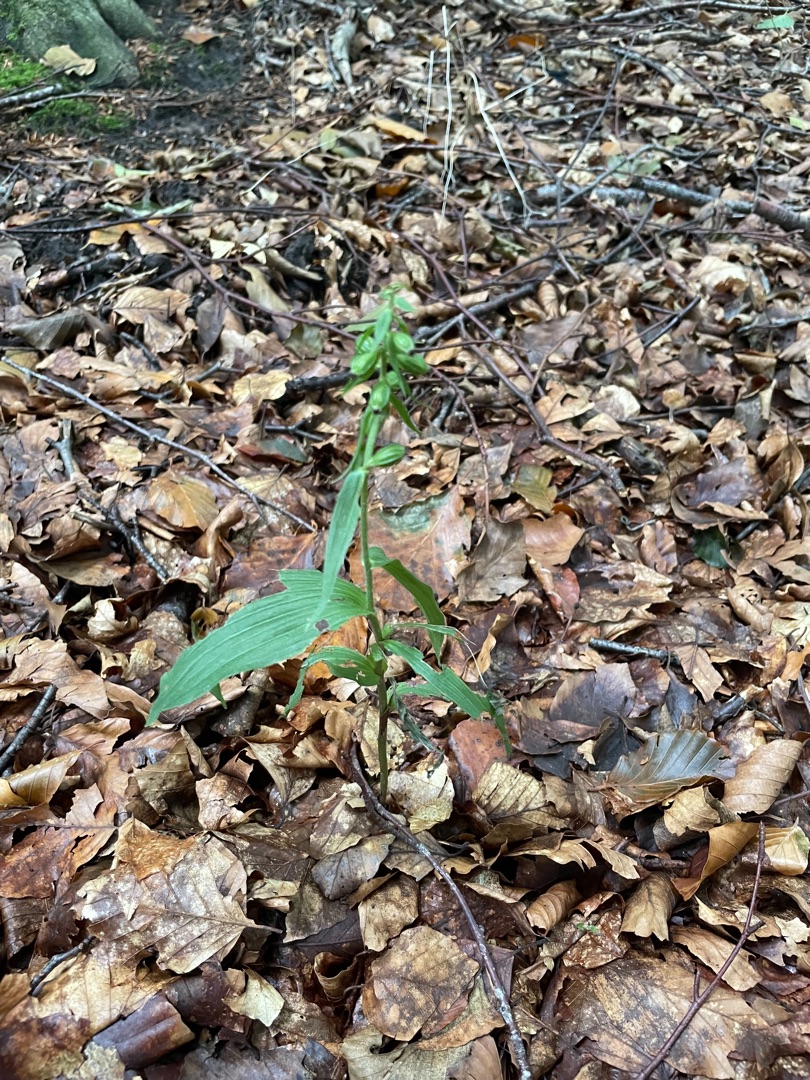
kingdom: Plantae
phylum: Tracheophyta
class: Liliopsida
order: Asparagales
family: Orchidaceae
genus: Epipactis
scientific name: Epipactis helleborine
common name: Skov-hullæbe
